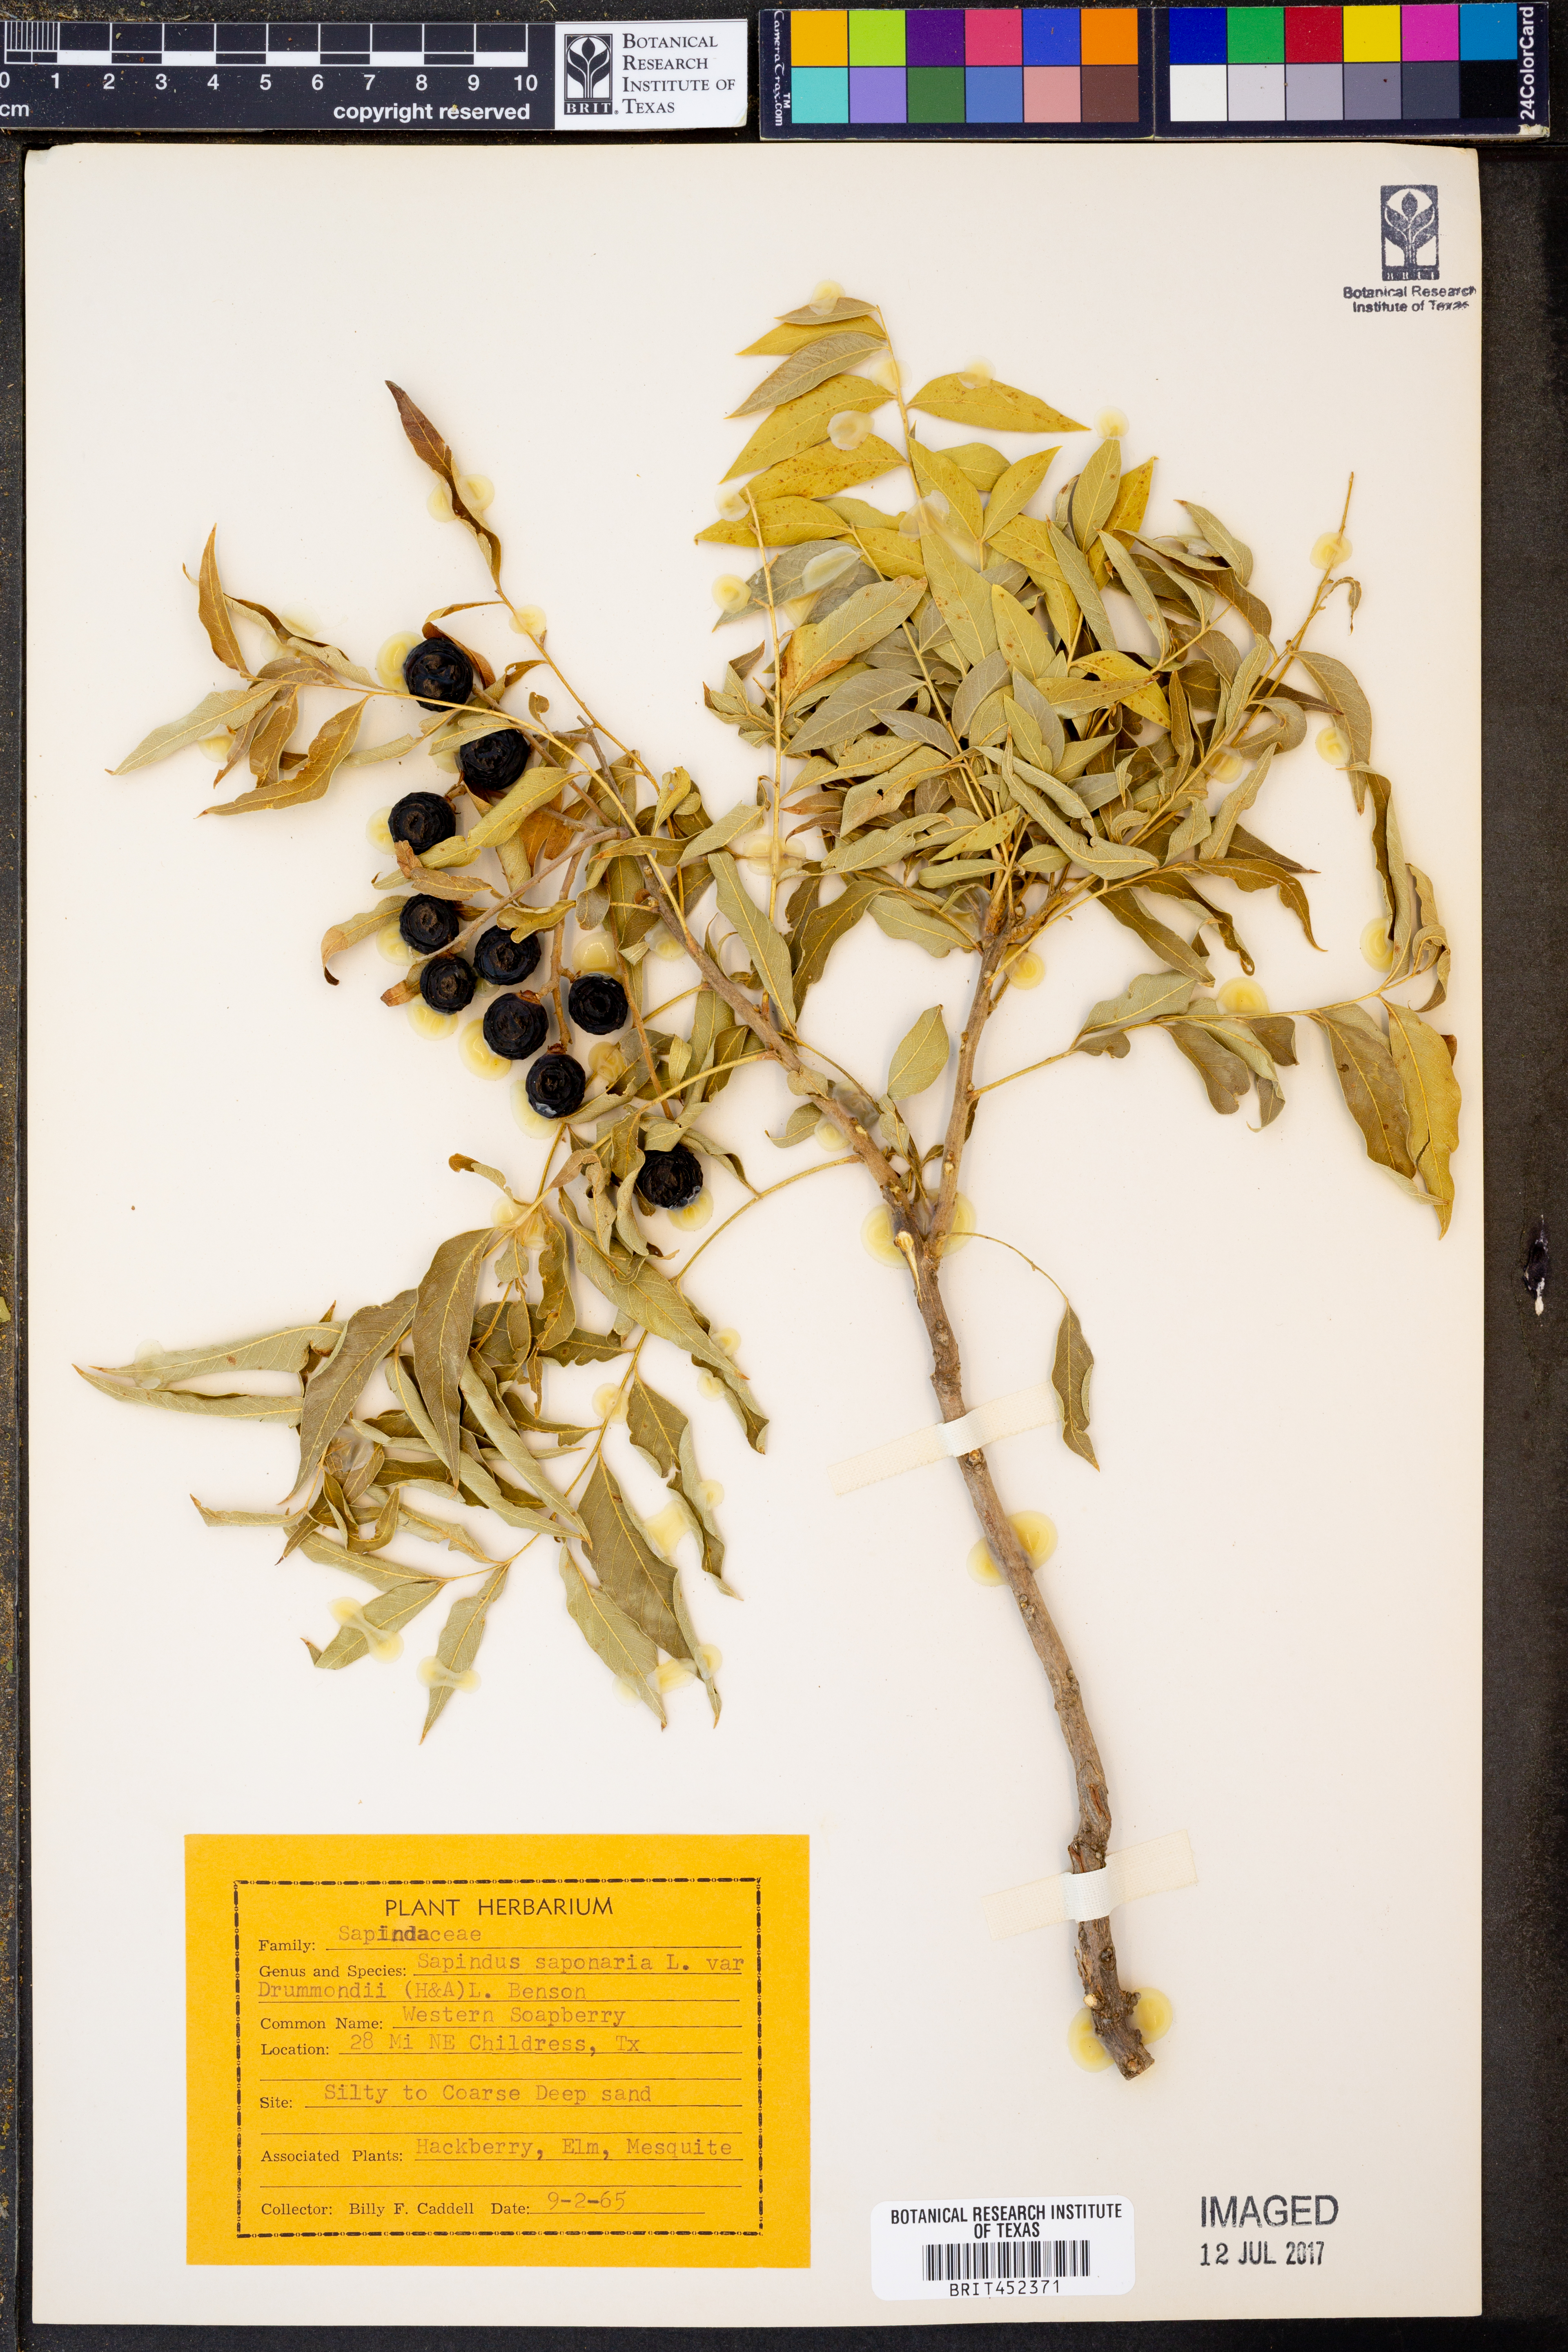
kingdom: Plantae
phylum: Tracheophyta
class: Magnoliopsida
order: Sapindales
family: Sapindaceae
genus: Sapindus
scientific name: Sapindus drummondii
